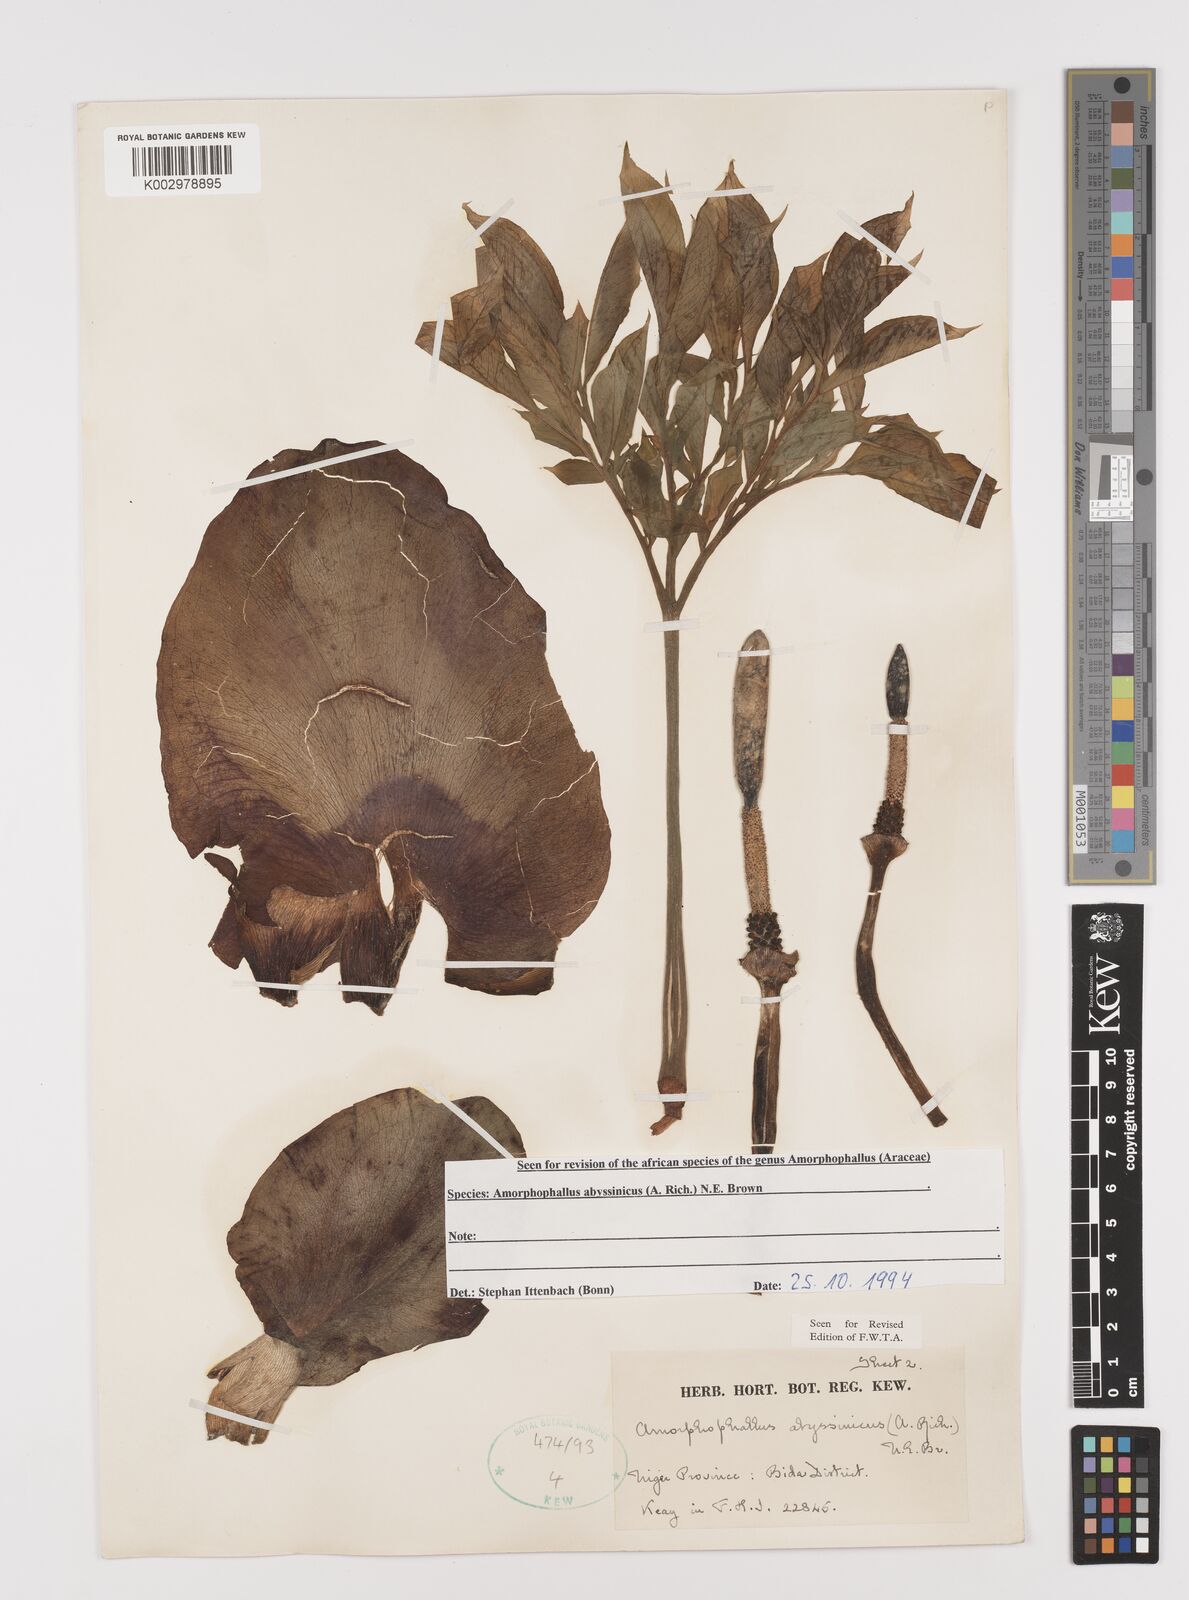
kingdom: Plantae
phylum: Tracheophyta
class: Liliopsida
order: Alismatales
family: Araceae
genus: Amorphophallus
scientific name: Amorphophallus abyssinicus
